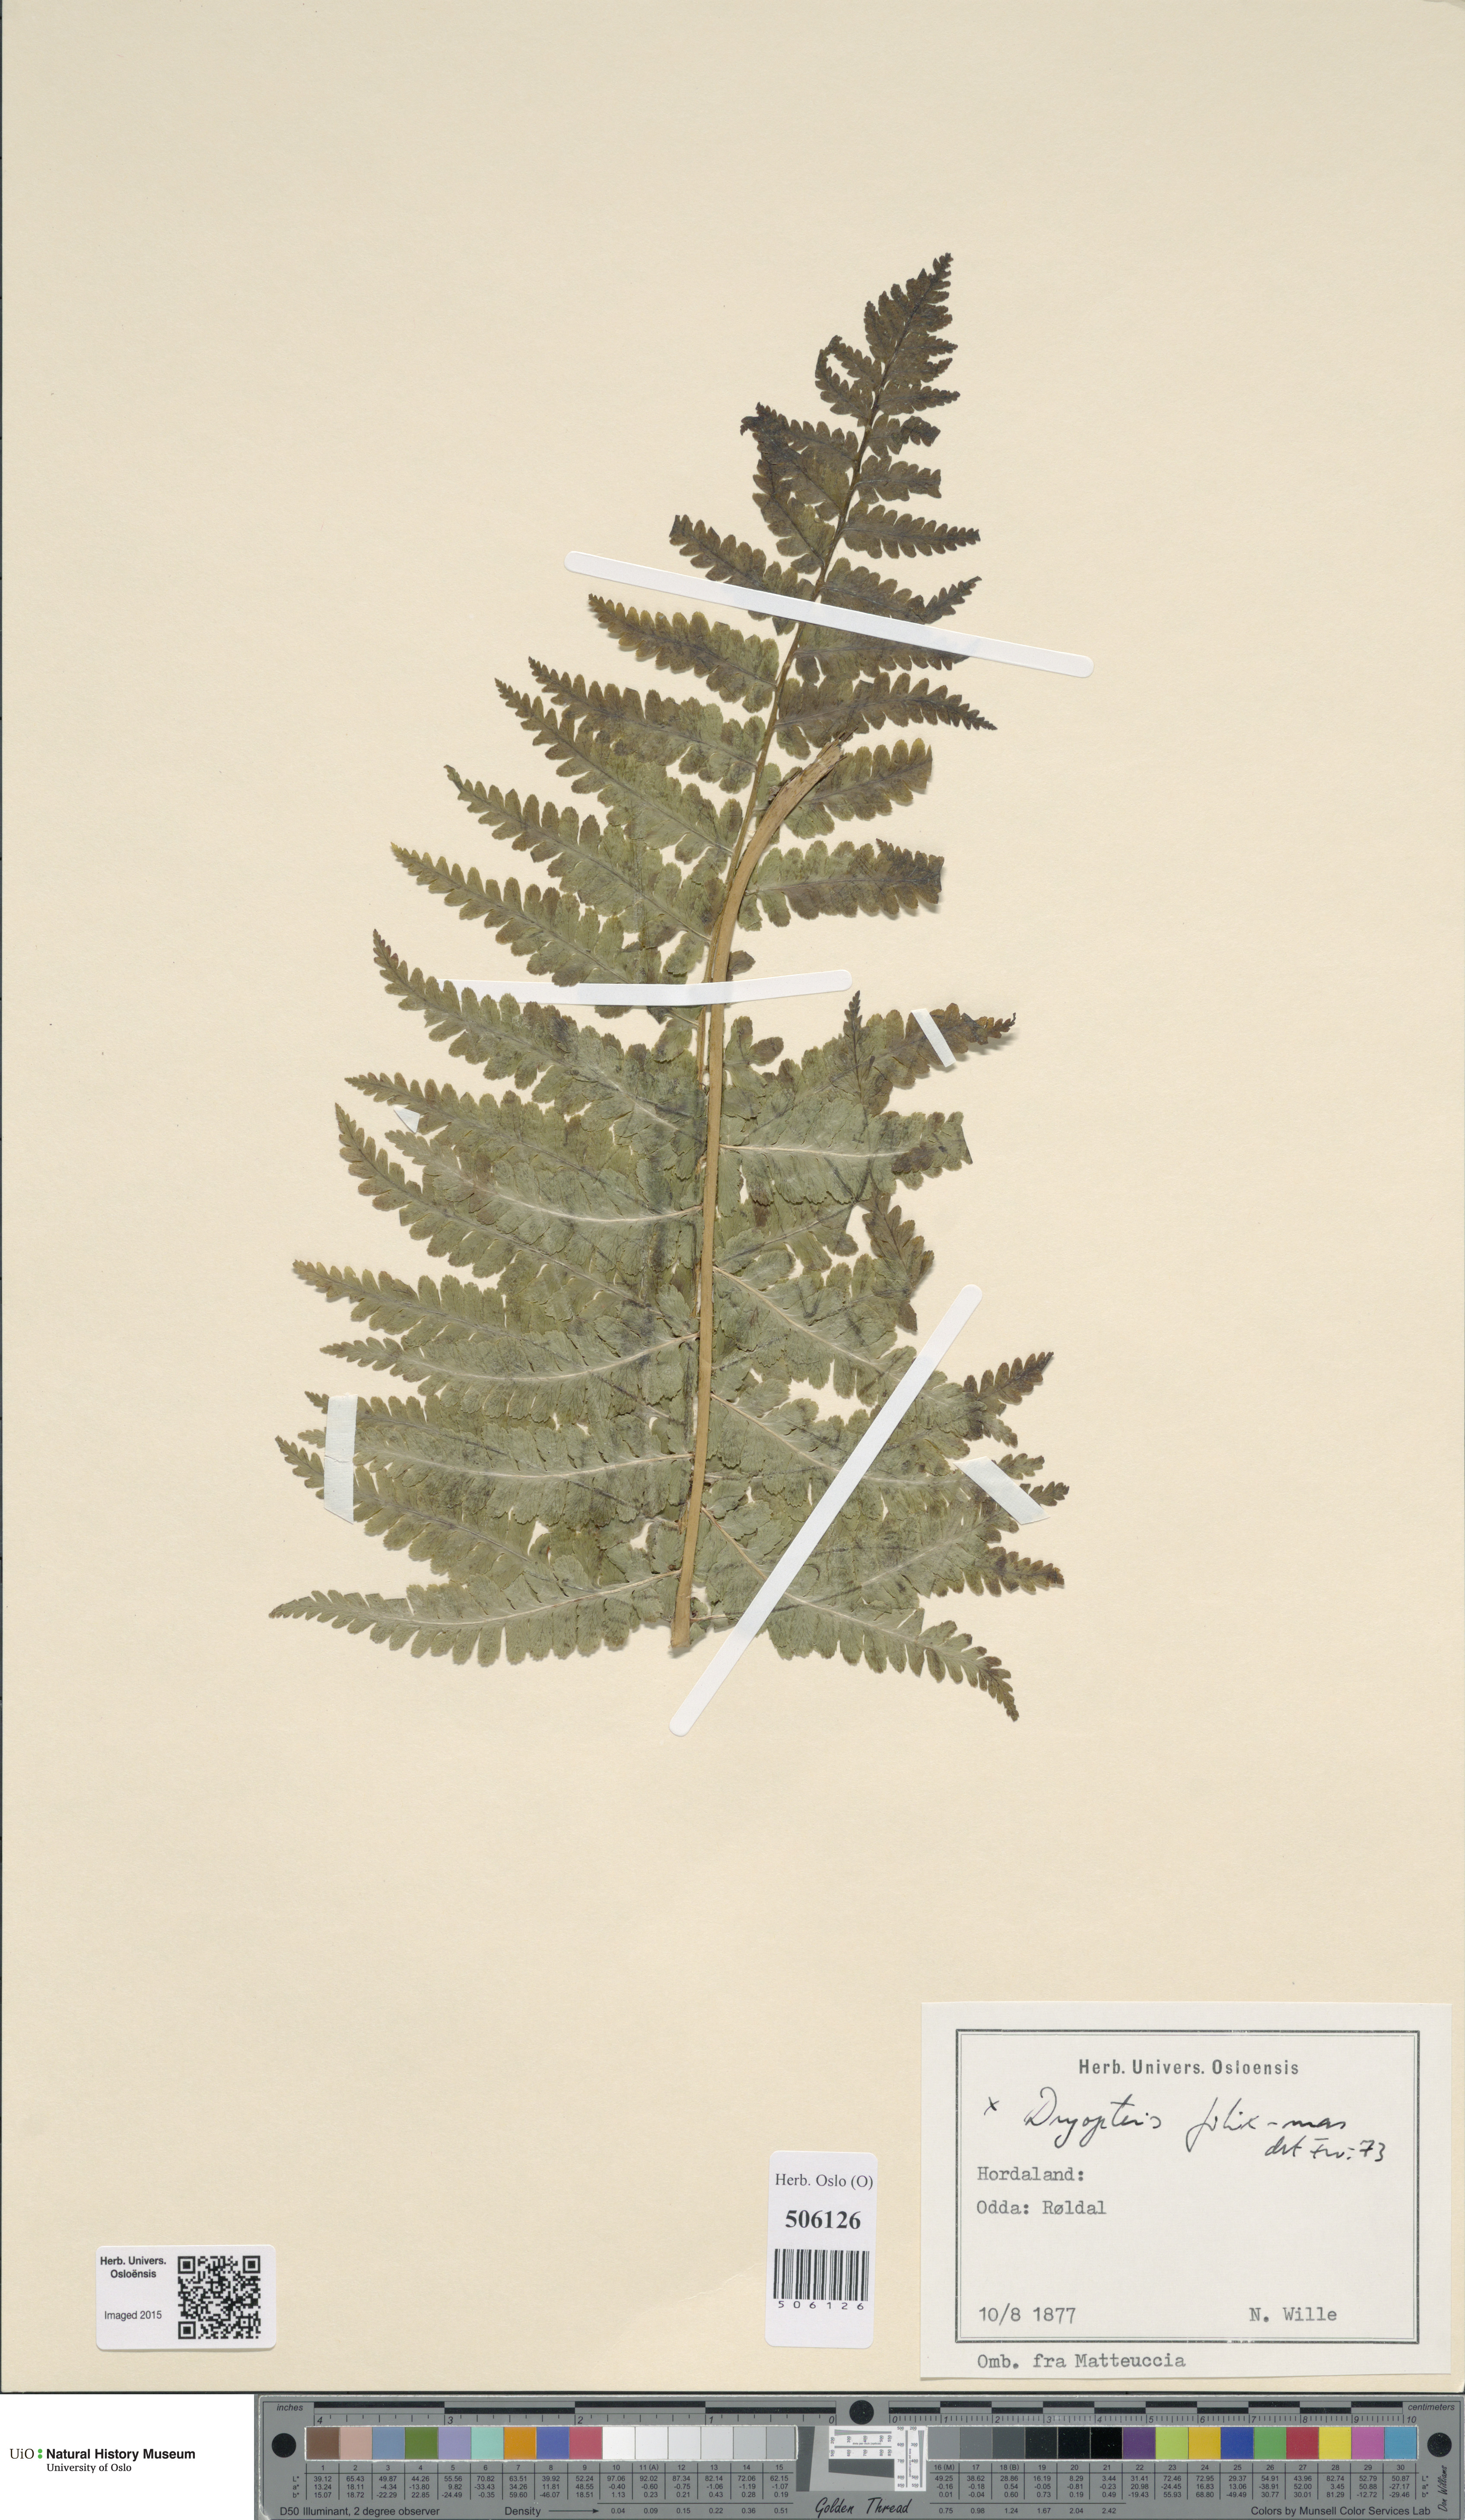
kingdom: Plantae
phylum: Tracheophyta
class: Polypodiopsida
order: Polypodiales
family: Dryopteridaceae
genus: Dryopteris
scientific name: Dryopteris filix-mas
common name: Male fern
